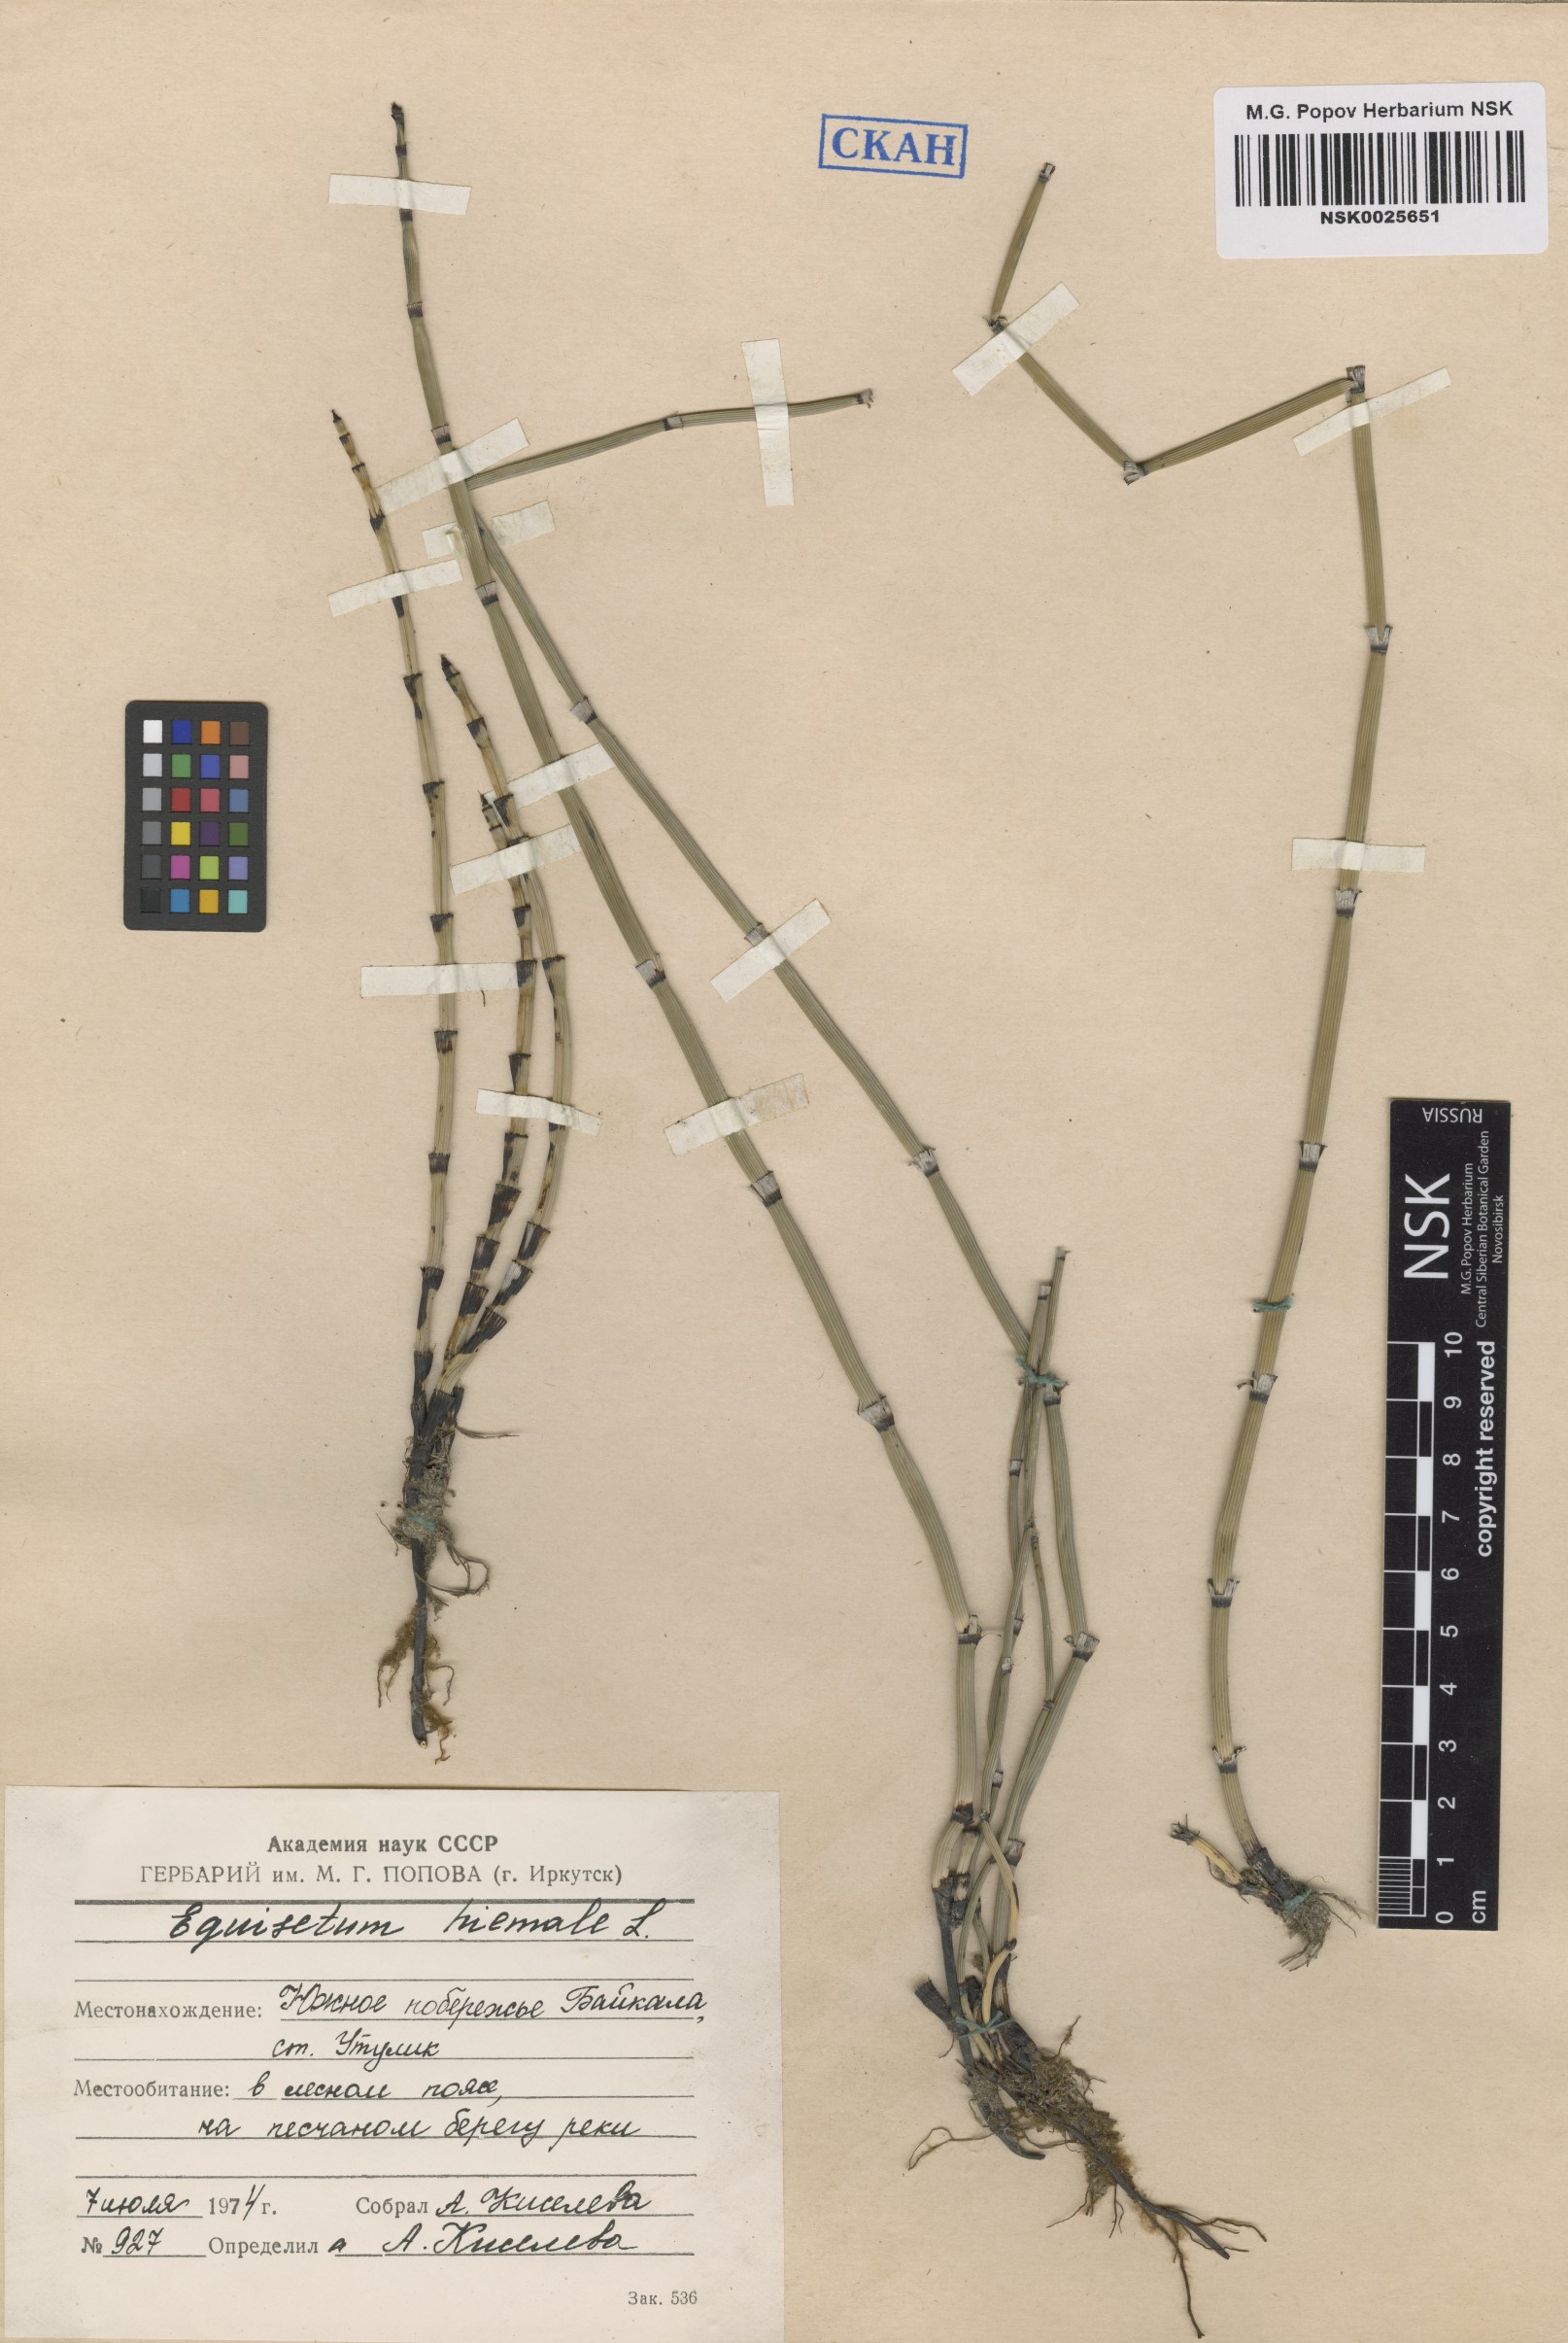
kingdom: Plantae
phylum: Tracheophyta
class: Polypodiopsida
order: Equisetales
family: Equisetaceae
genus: Equisetum
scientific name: Equisetum hyemale
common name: Rough horsetail
